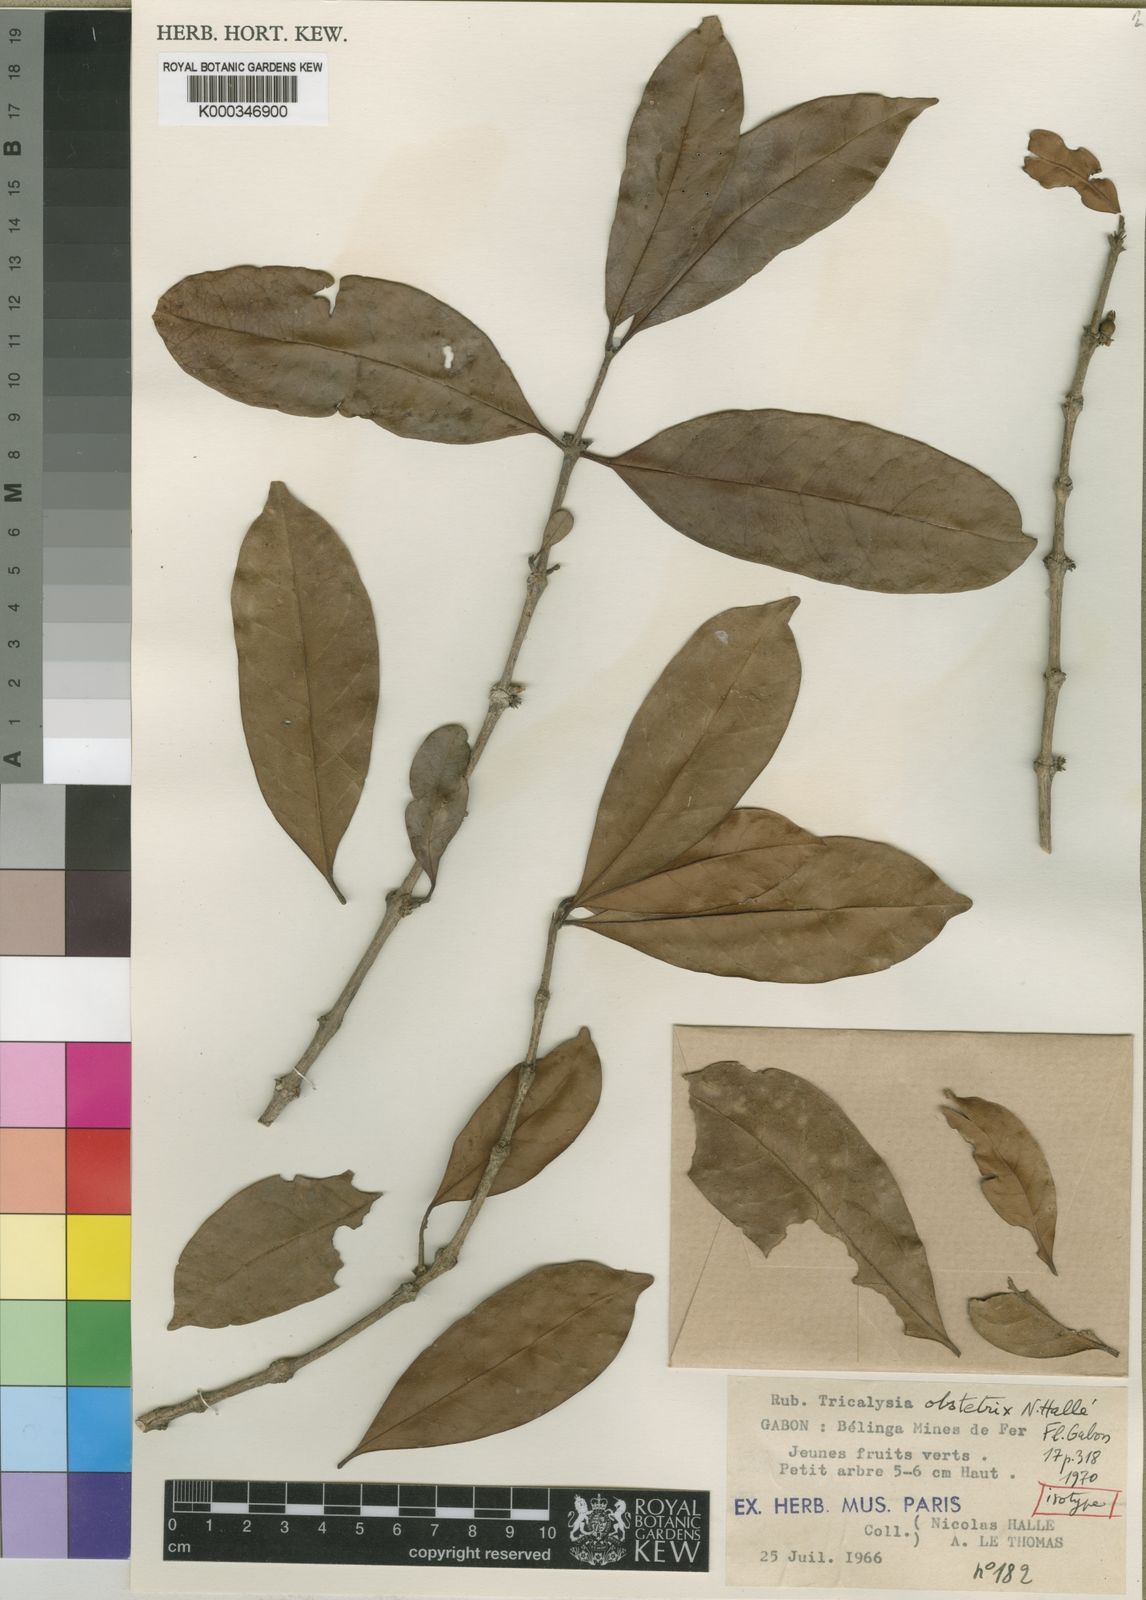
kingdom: Plantae
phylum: Tracheophyta
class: Magnoliopsida
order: Gentianales
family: Rubiaceae
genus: Tricalysia
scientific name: Tricalysia
